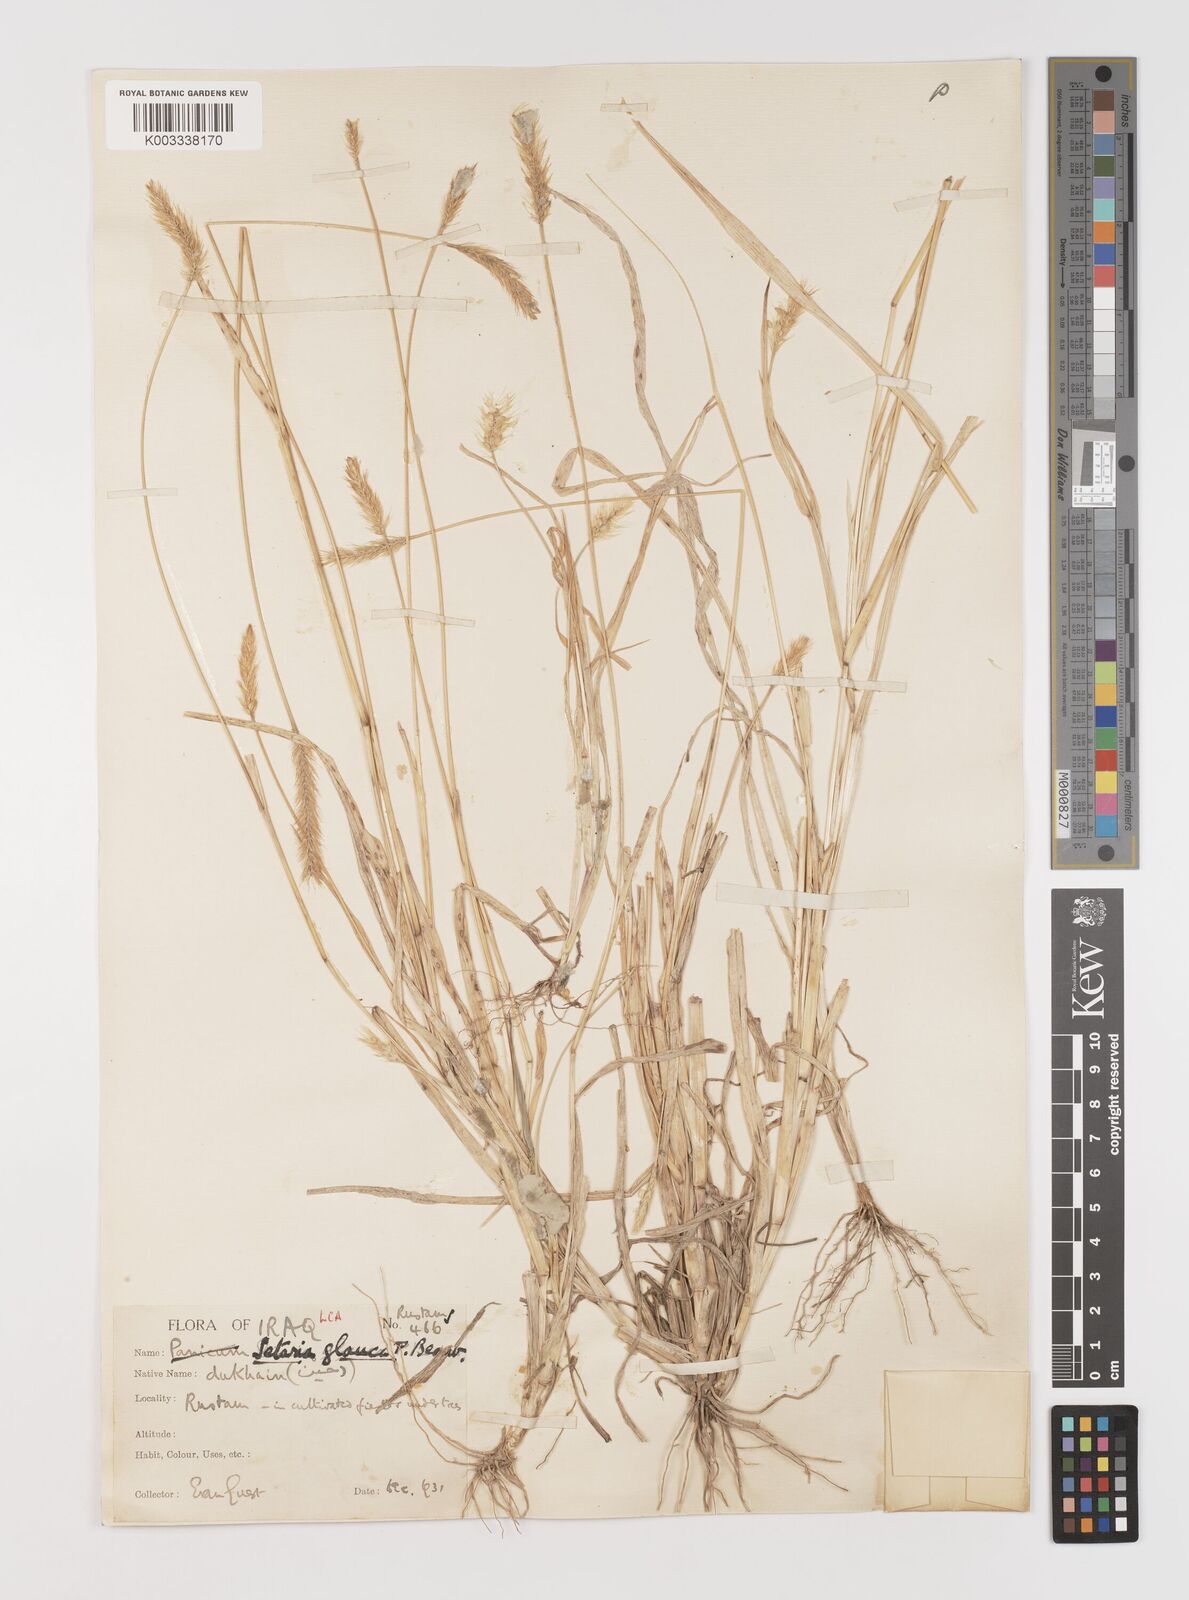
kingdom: Plantae
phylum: Tracheophyta
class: Liliopsida
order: Poales
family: Poaceae
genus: Setaria
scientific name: Setaria pumila
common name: Yellow bristle-grass
